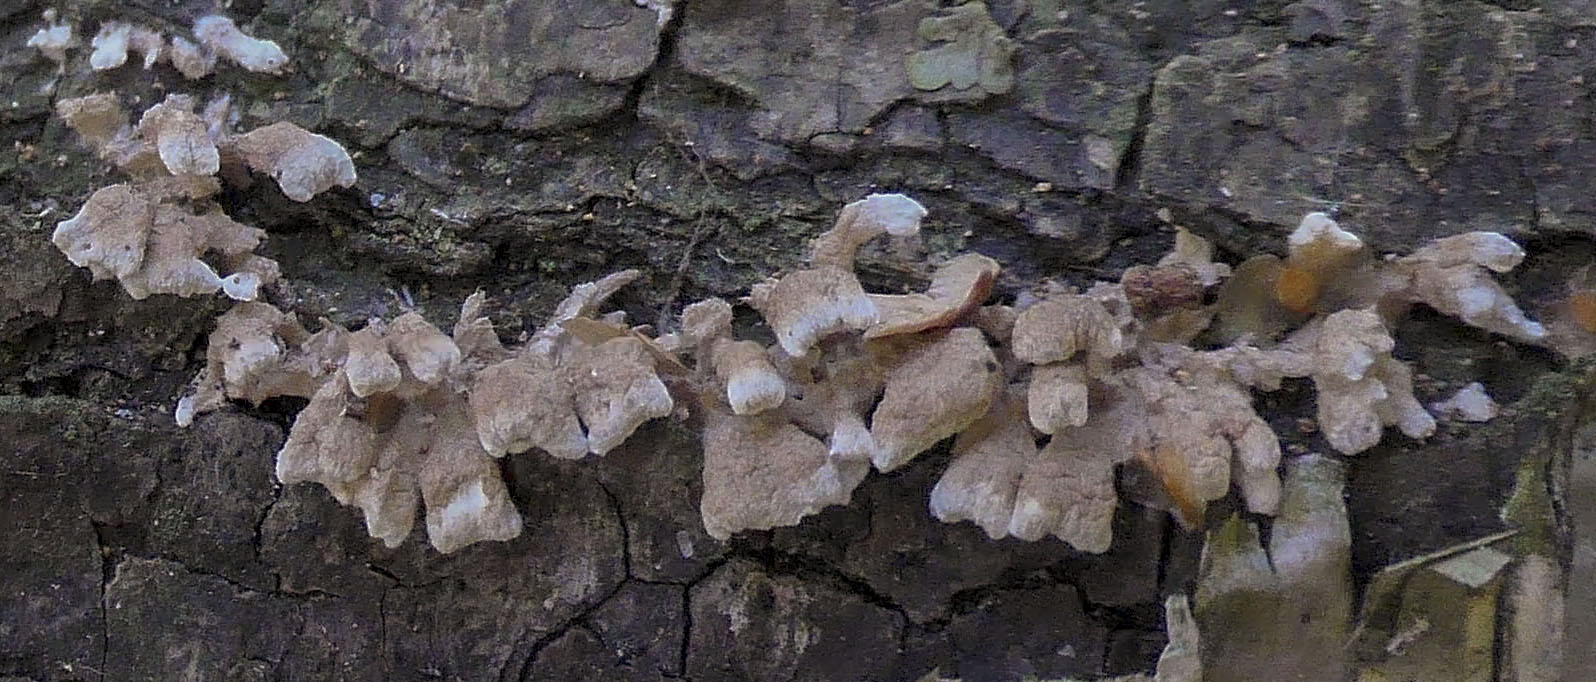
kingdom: Fungi
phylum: Basidiomycota
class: Agaricomycetes
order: Amylocorticiales
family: Amylocorticiaceae
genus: Plicaturopsis
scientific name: Plicaturopsis crispa
